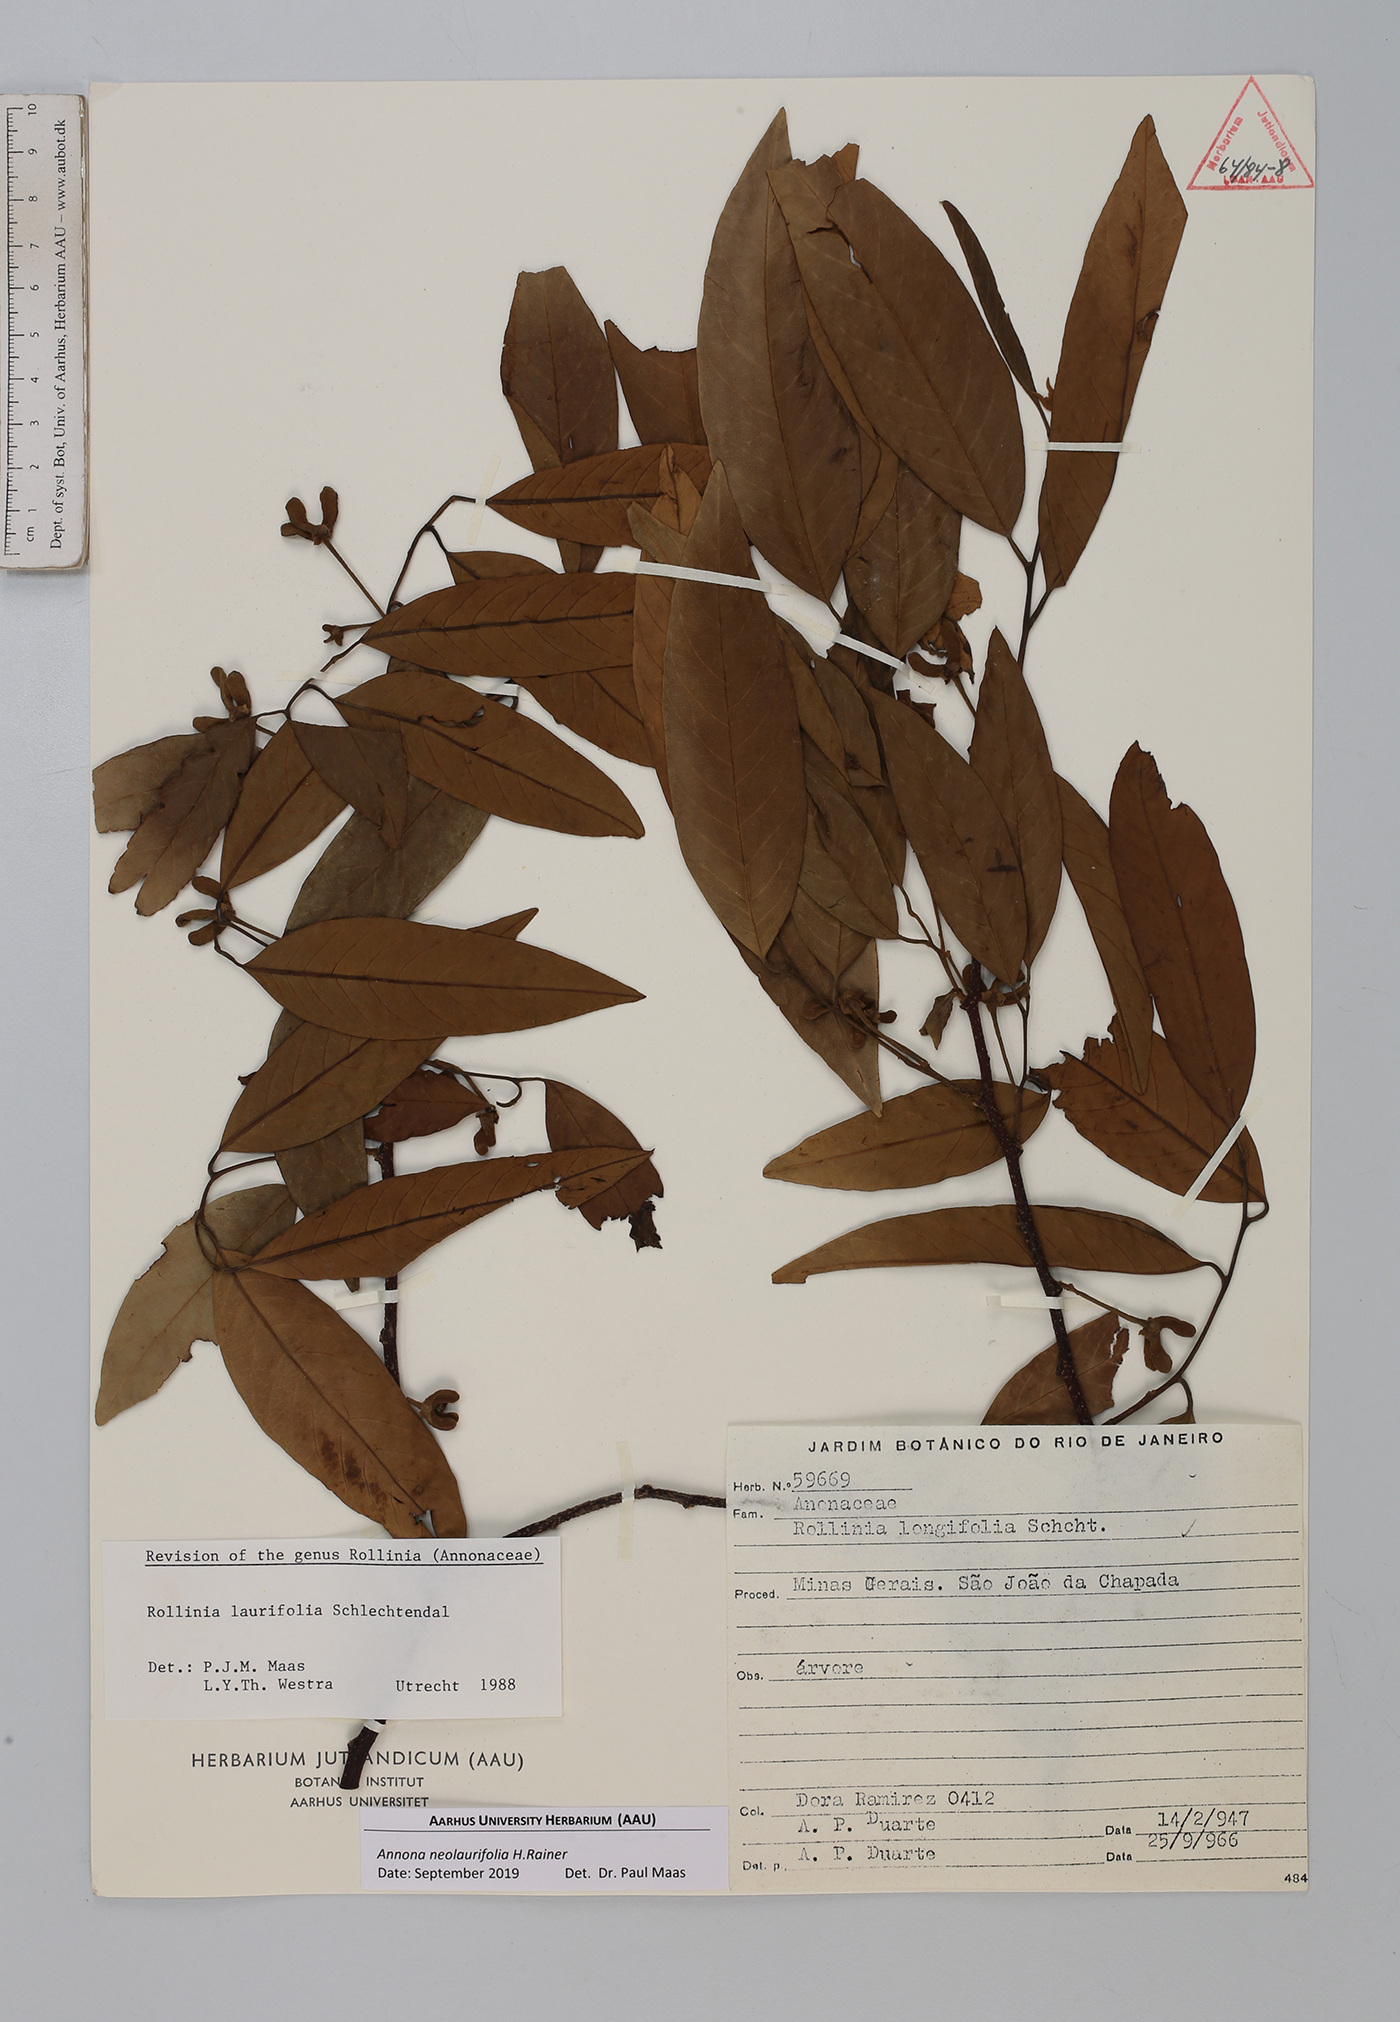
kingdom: Plantae
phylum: Tracheophyta
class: Magnoliopsida
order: Magnoliales
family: Annonaceae
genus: Annona
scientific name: Annona neolaurifolia
